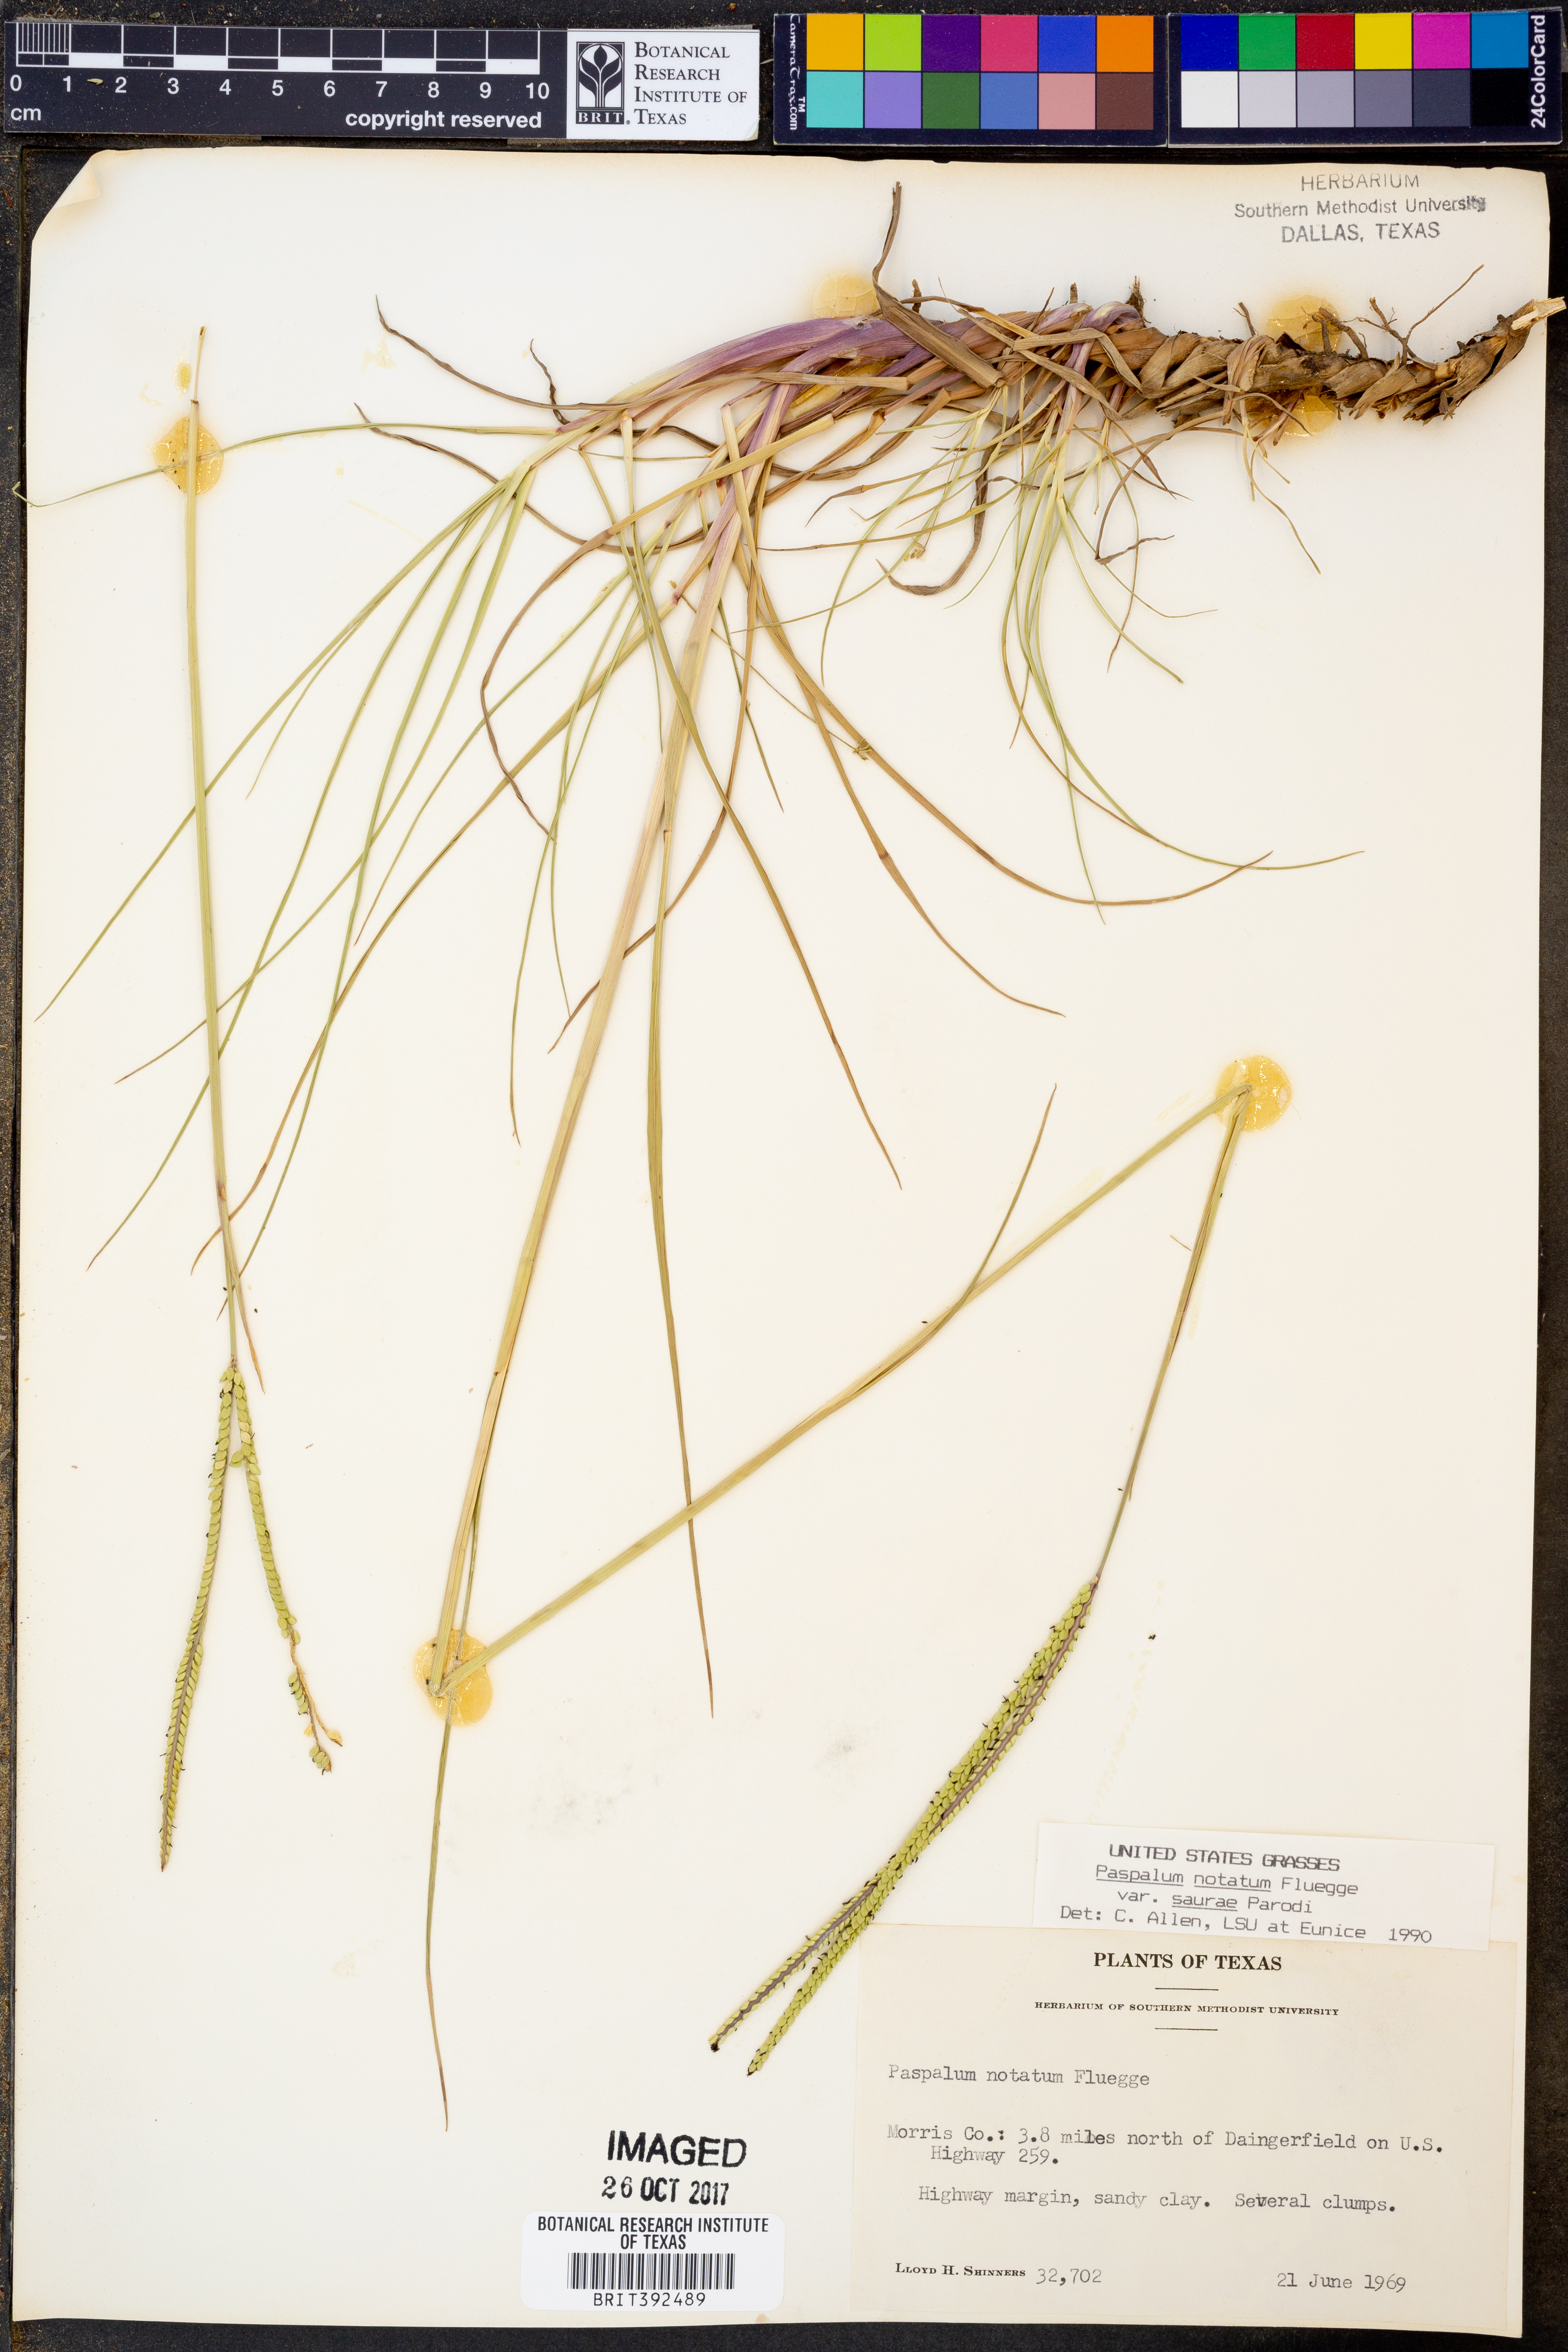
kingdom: Plantae
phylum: Tracheophyta
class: Liliopsida
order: Poales
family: Poaceae
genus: Paspalum
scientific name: Paspalum saurae
